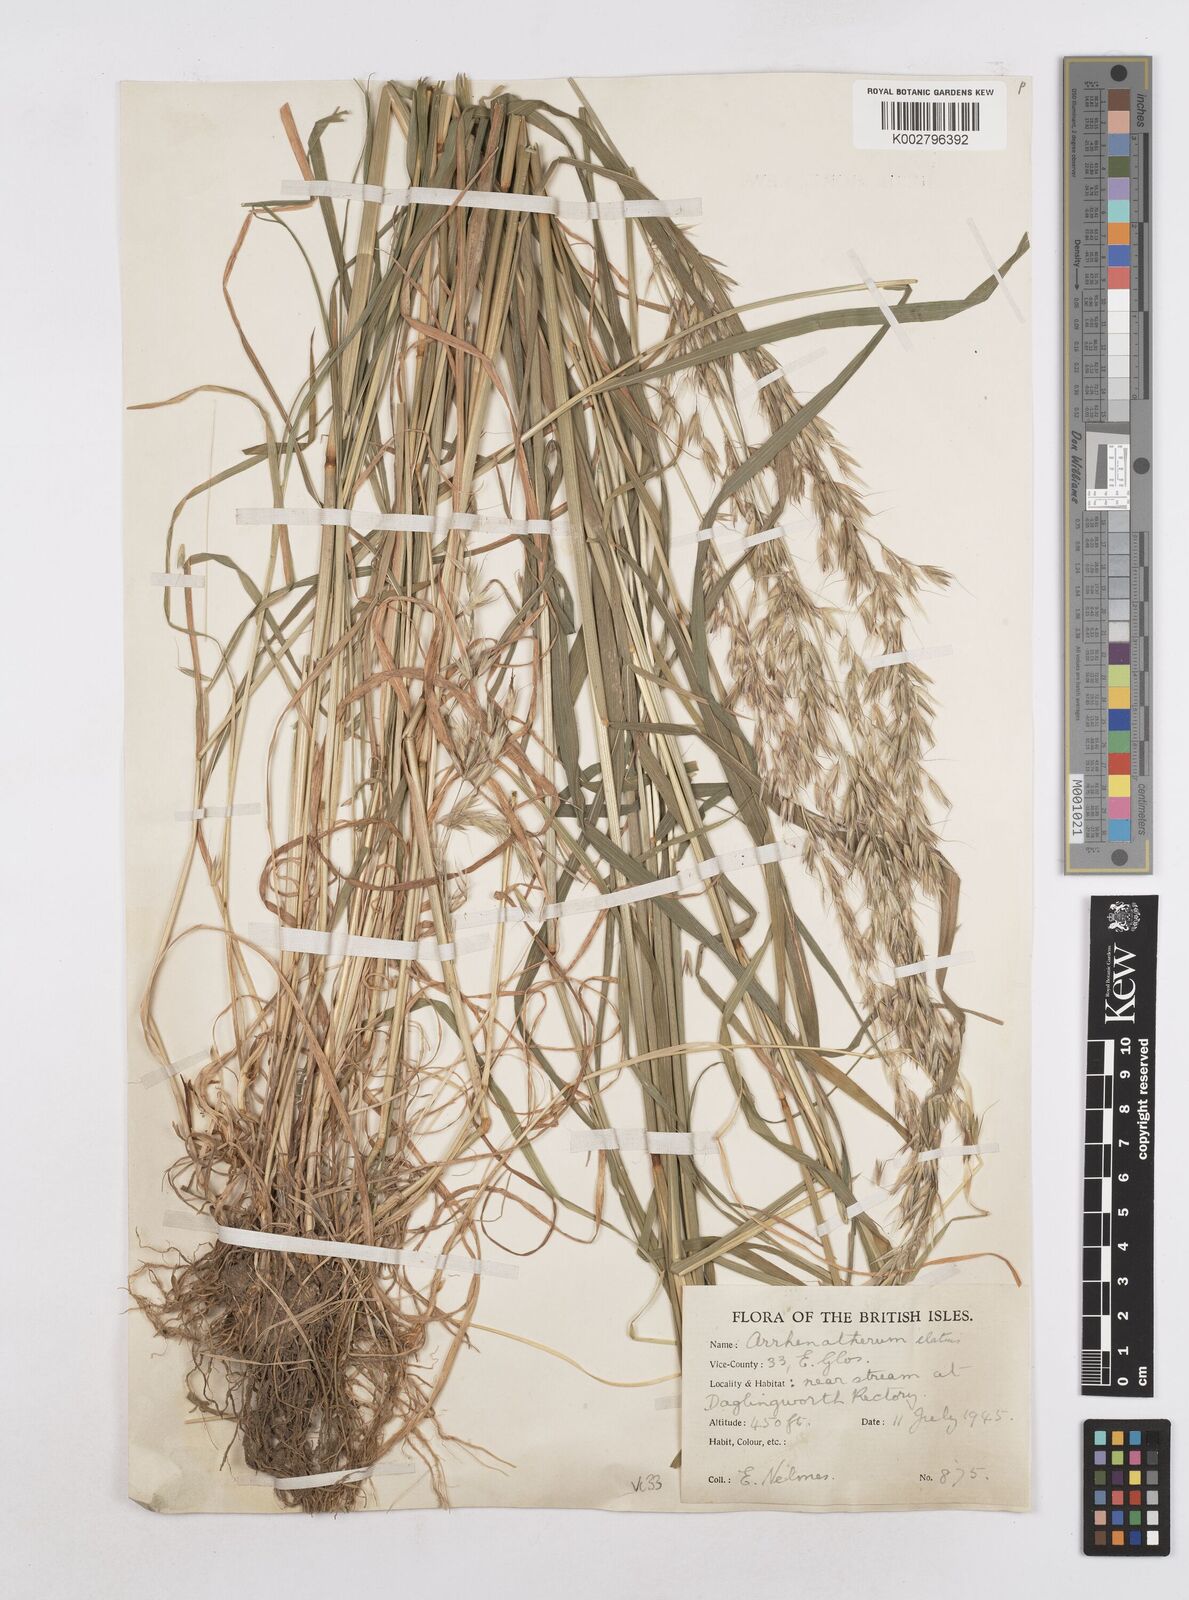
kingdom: Plantae
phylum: Tracheophyta
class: Liliopsida
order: Poales
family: Poaceae
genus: Arrhenatherum
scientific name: Arrhenatherum elatius
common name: Tall oatgrass
